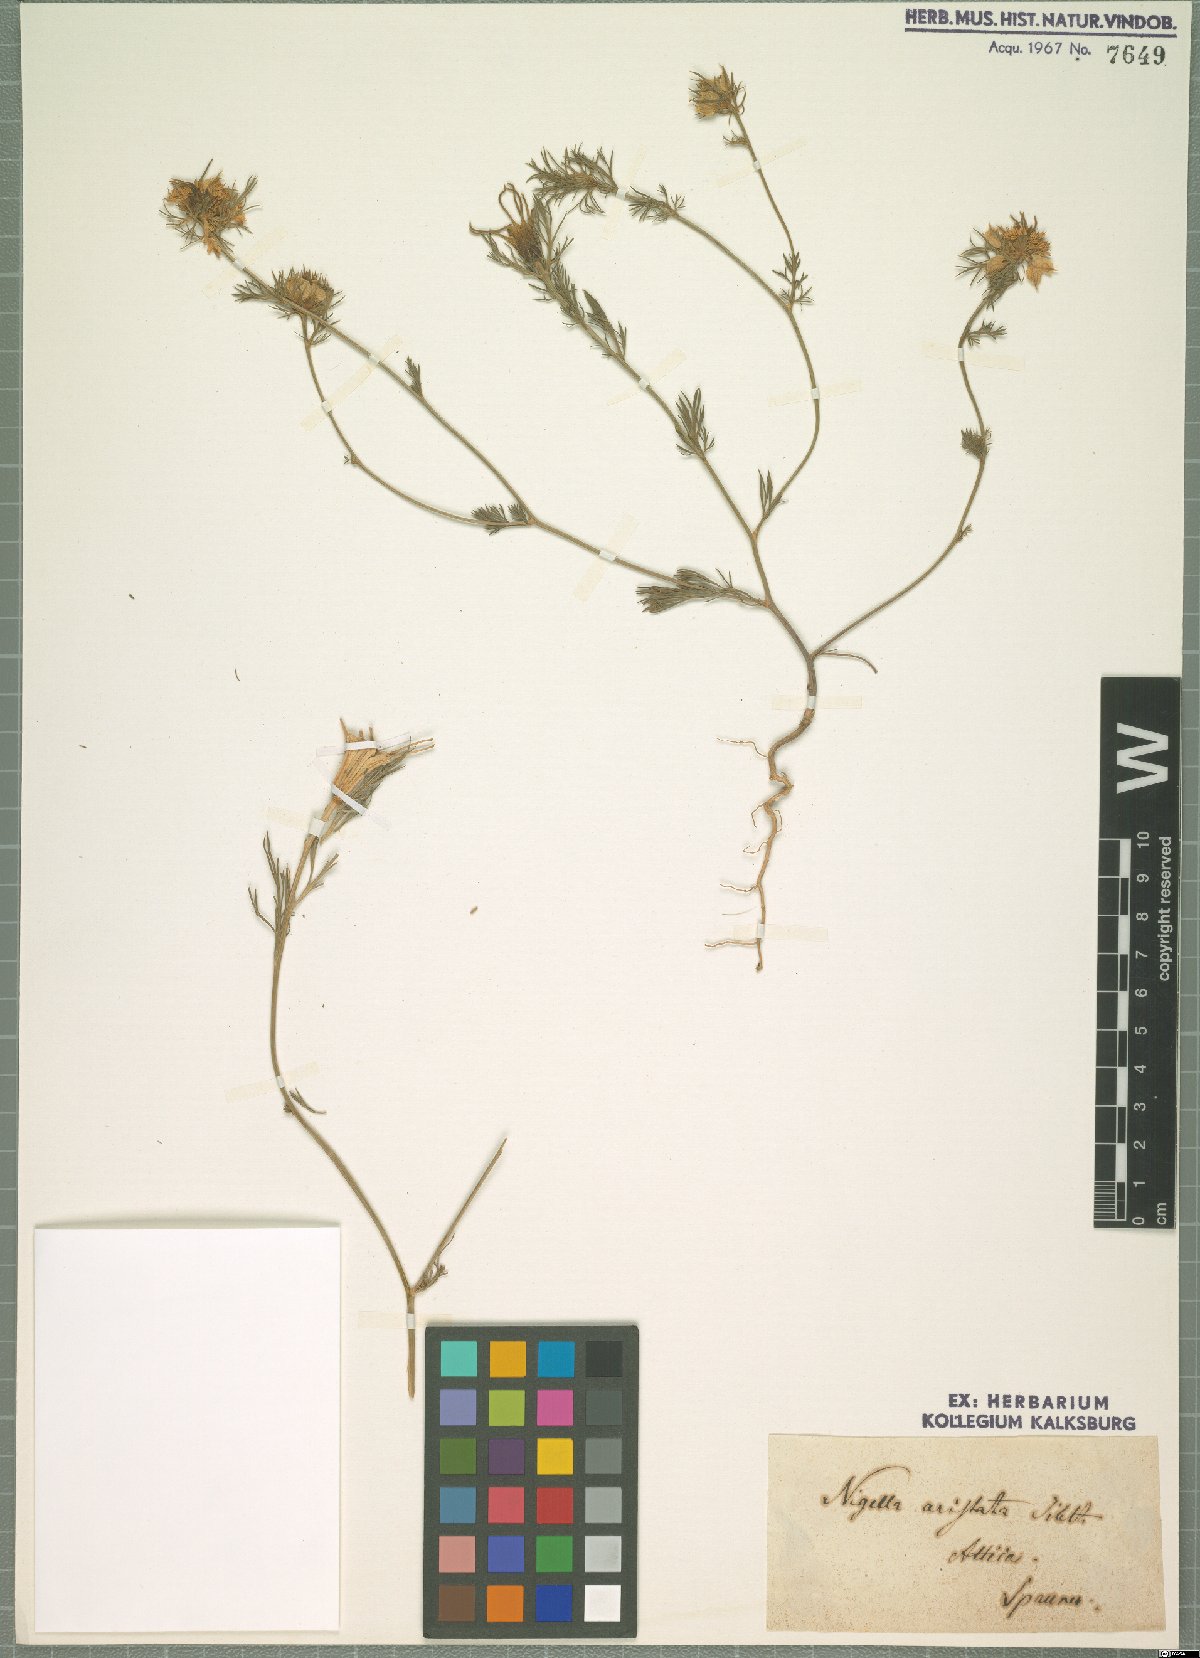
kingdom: Plantae
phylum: Tracheophyta
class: Magnoliopsida
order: Ranunculales
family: Ranunculaceae
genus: Nigella
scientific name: Nigella gallica
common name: Pale fennel-flower
